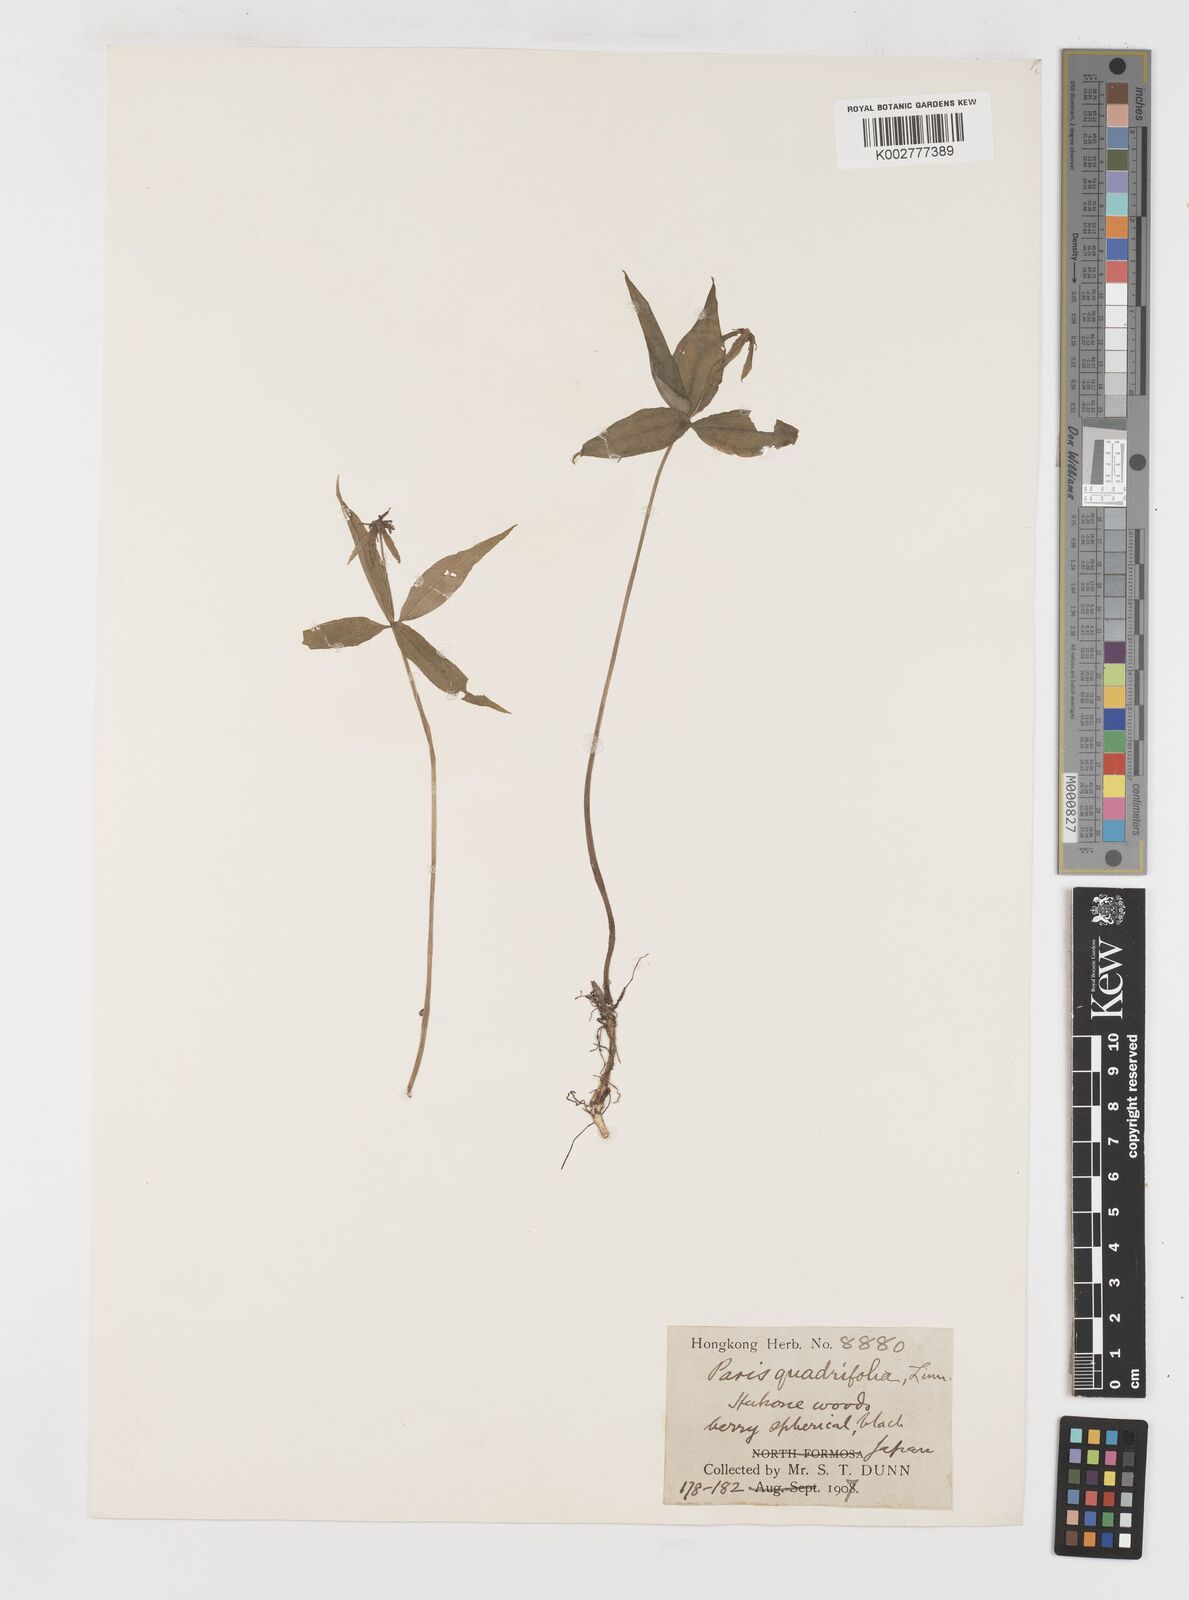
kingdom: Plantae
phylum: Tracheophyta
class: Liliopsida
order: Liliales
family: Melanthiaceae
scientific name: Melanthiaceae
